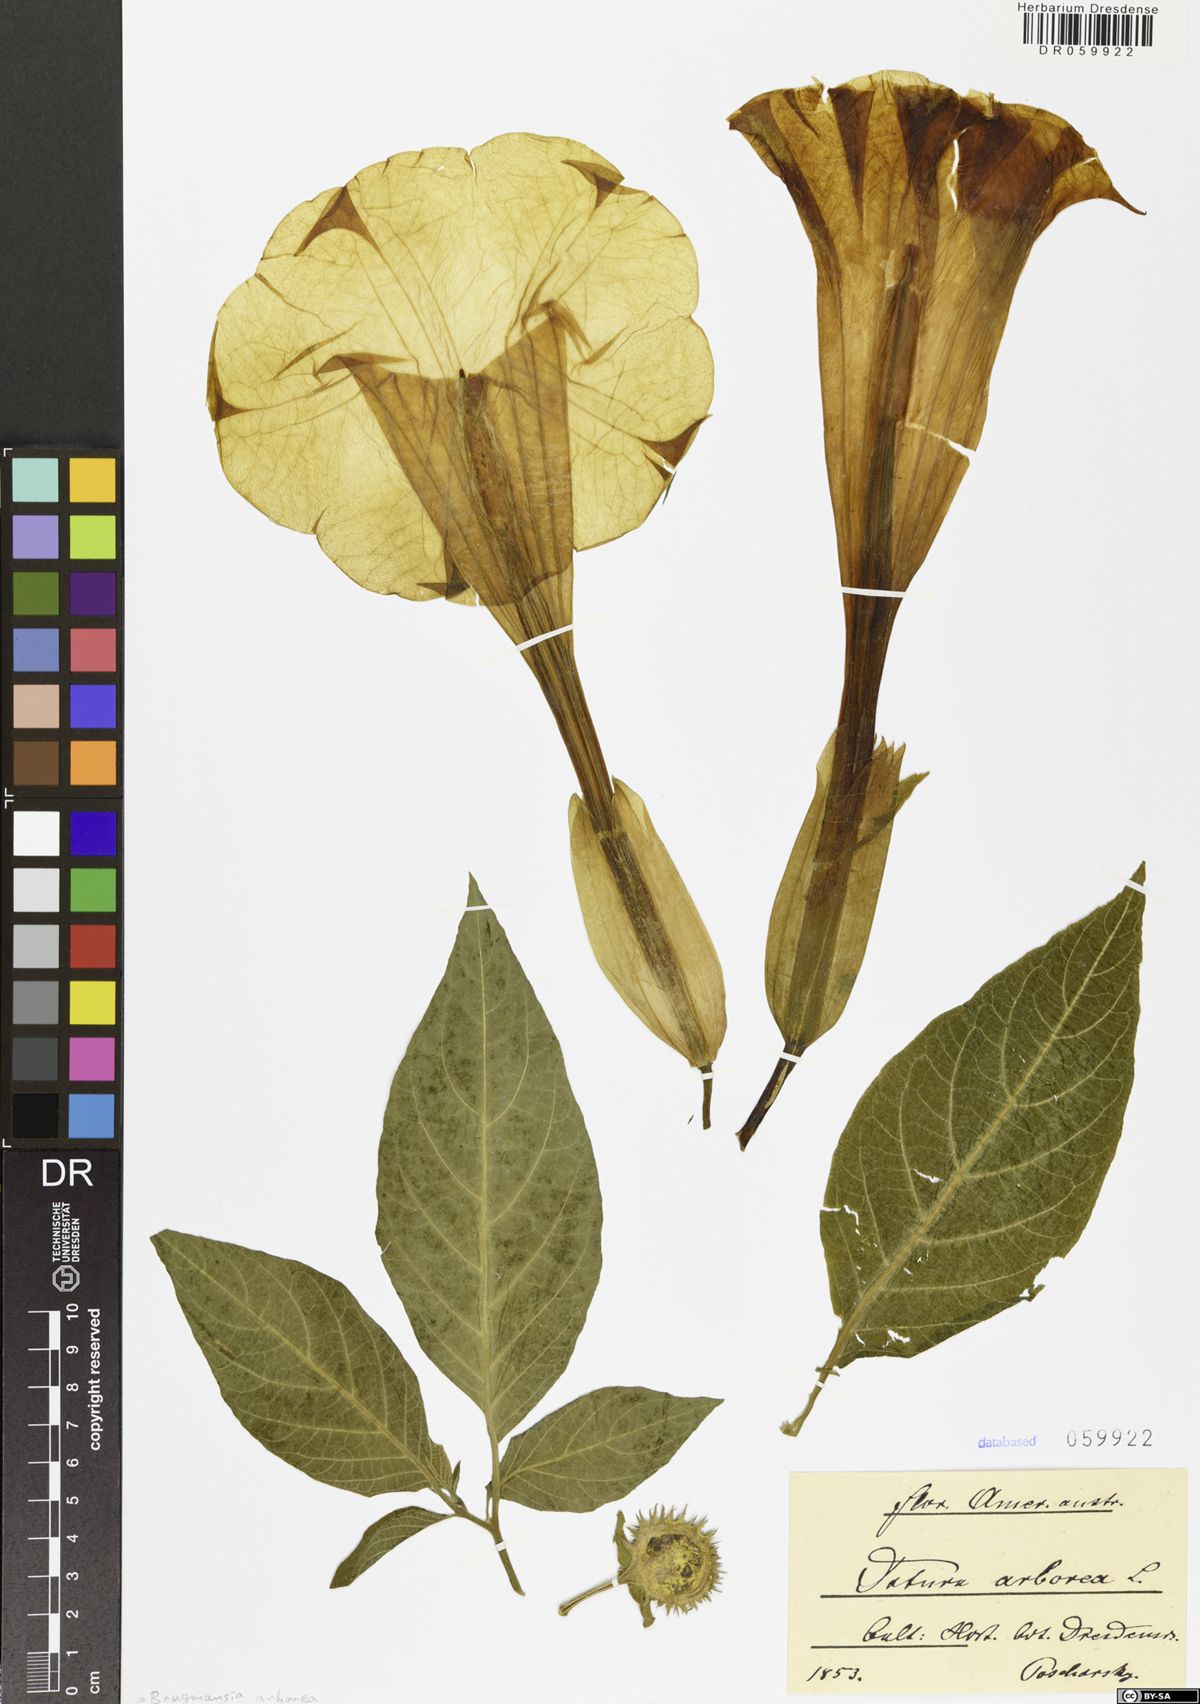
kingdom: Plantae
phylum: Tracheophyta
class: Magnoliopsida
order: Solanales
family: Solanaceae
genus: Brugmansia
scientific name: Brugmansia arborea
